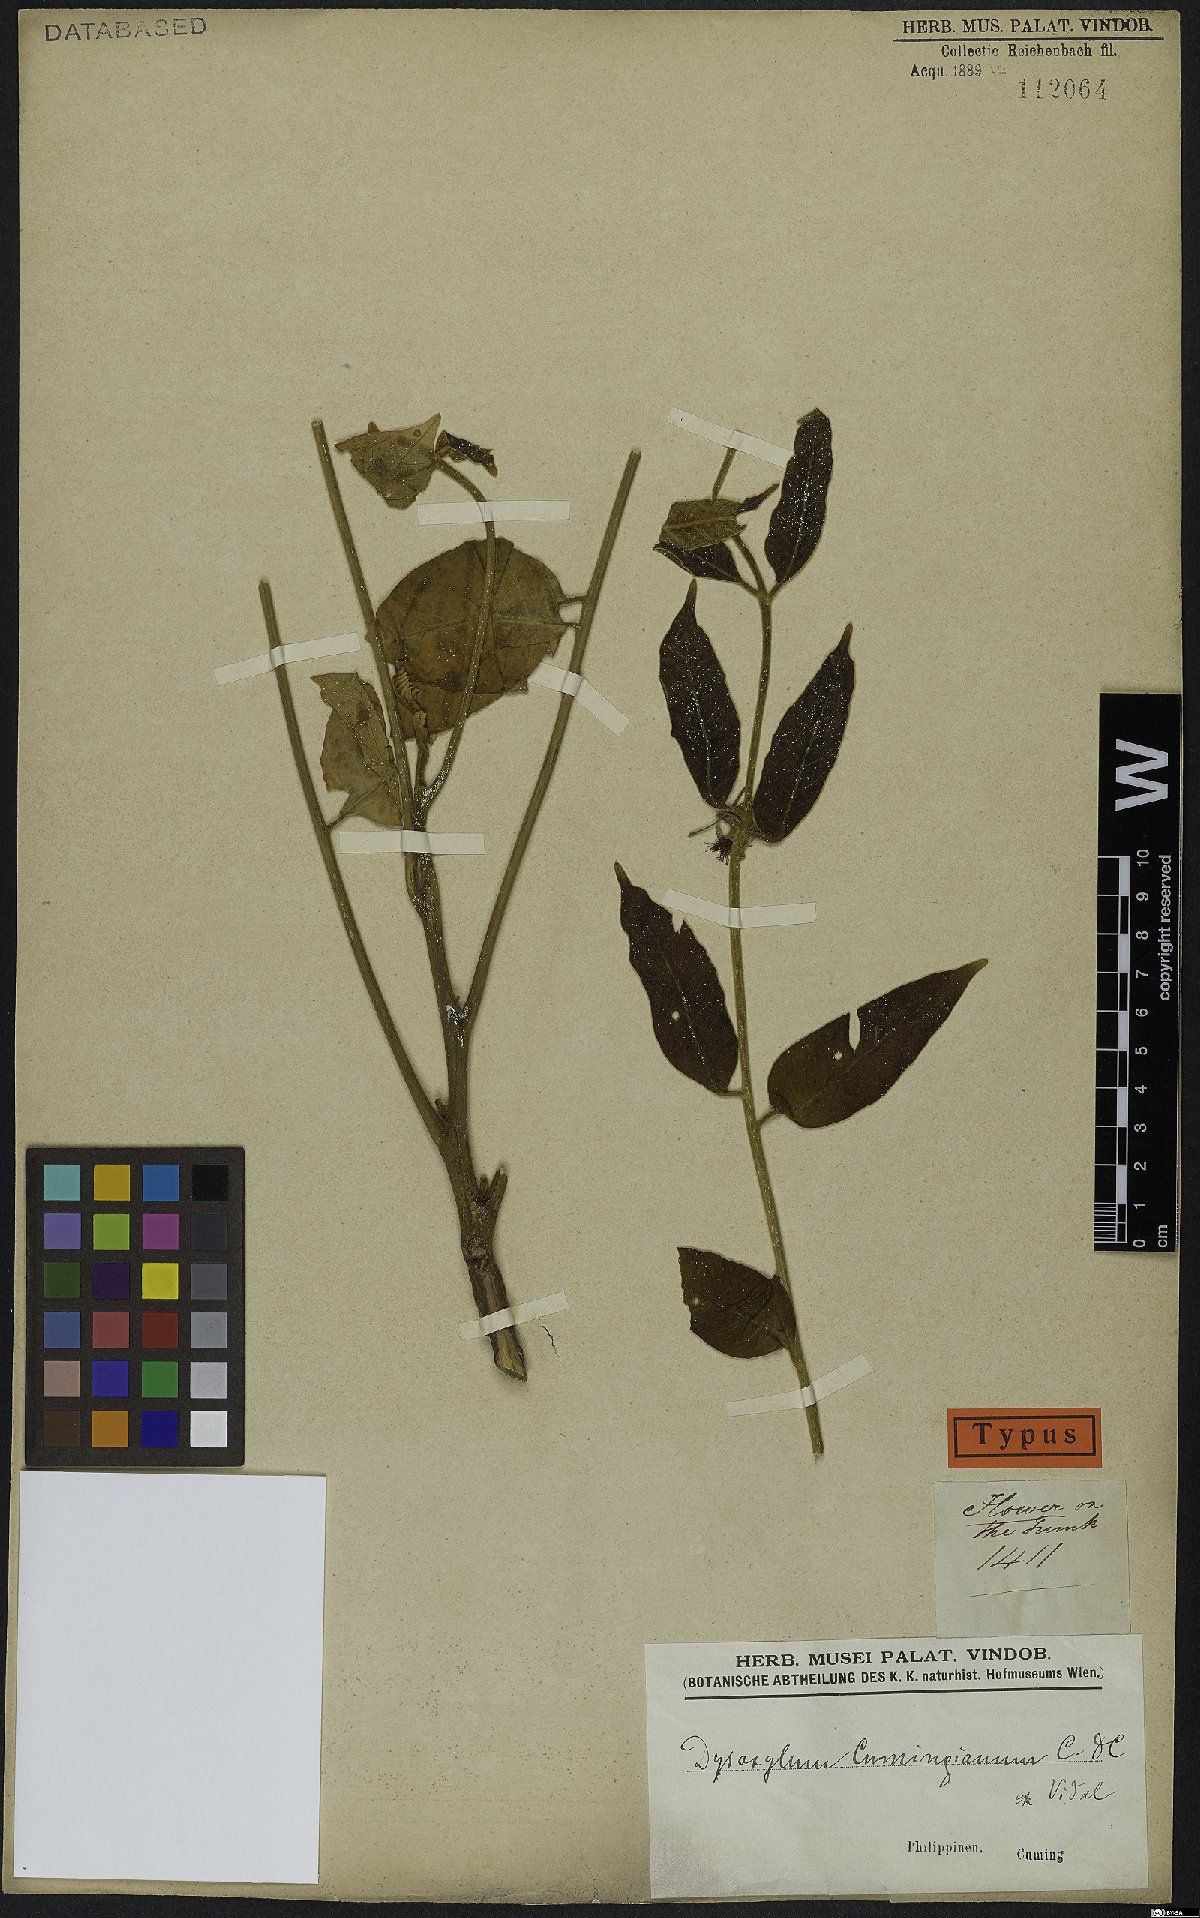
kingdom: Plantae
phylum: Tracheophyta
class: Magnoliopsida
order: Sapindales
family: Meliaceae
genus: Epicharis
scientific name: Epicharis cumingiana
